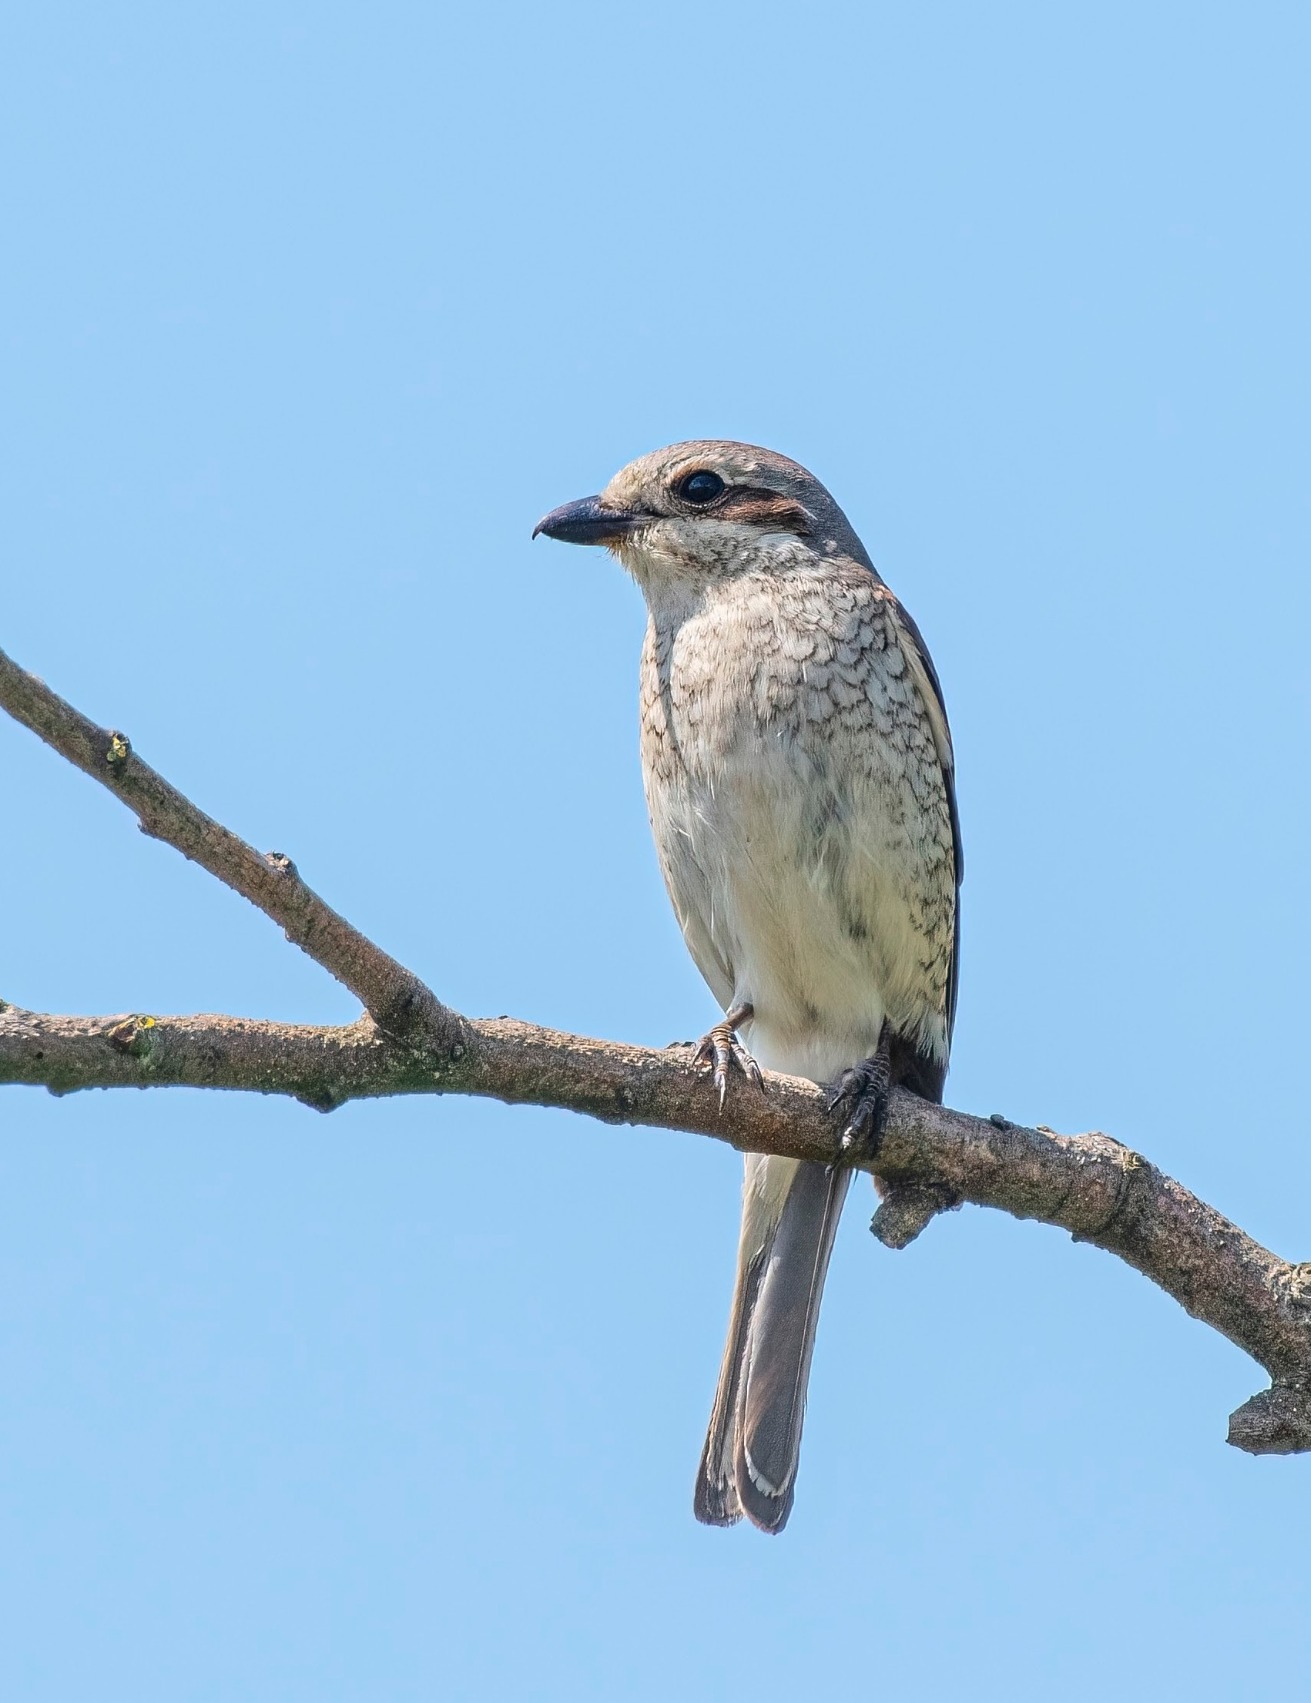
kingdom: Animalia
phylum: Chordata
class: Aves
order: Passeriformes
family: Laniidae
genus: Lanius
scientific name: Lanius collurio
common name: Rødrygget tornskade
